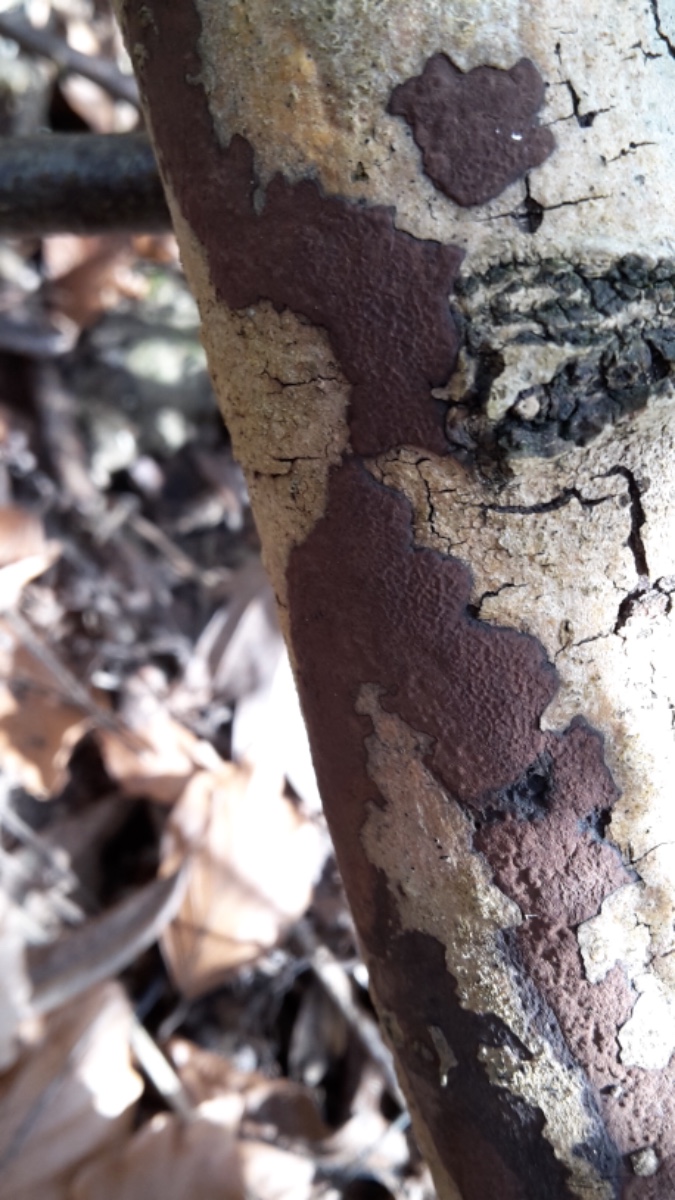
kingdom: Fungi
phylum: Ascomycota
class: Sordariomycetes
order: Xylariales
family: Hypoxylaceae
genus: Hypoxylon
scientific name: Hypoxylon petriniae
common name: nedsænket kulbær
